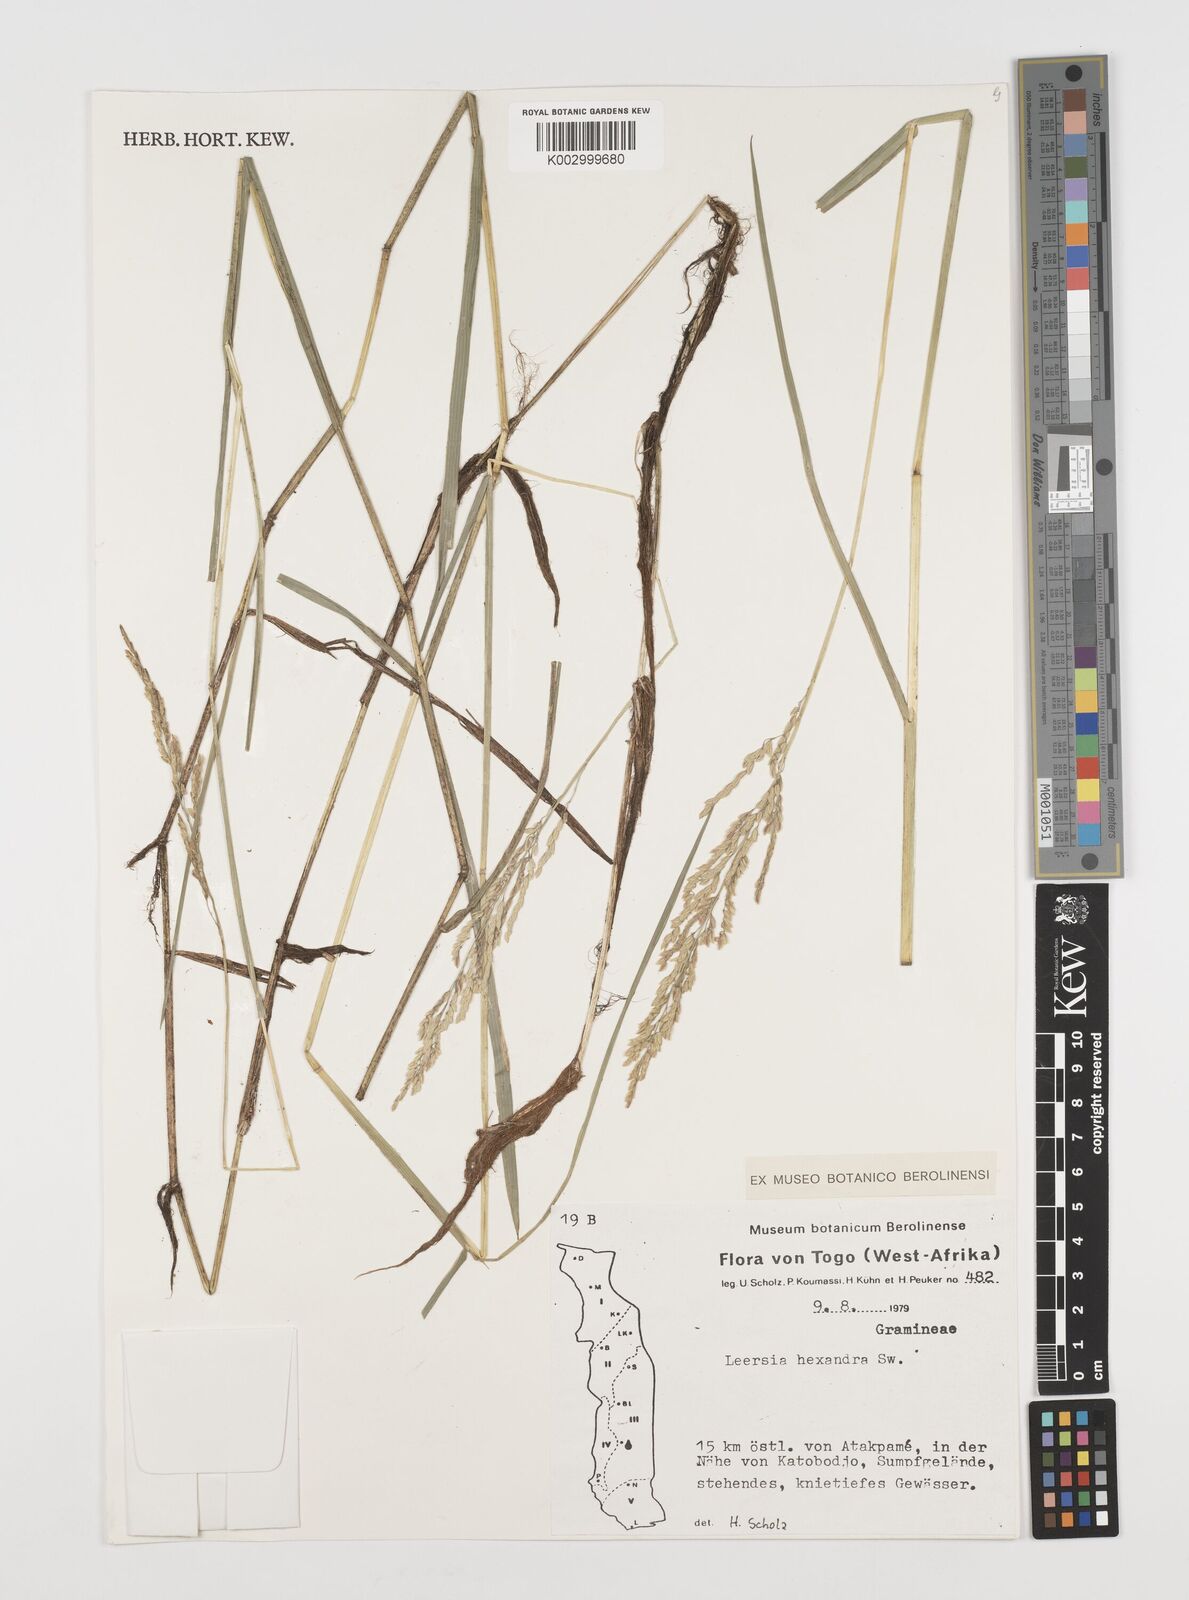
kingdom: Plantae
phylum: Tracheophyta
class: Liliopsida
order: Poales
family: Poaceae
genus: Leersia
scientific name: Leersia hexandra
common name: Southern cut grass
